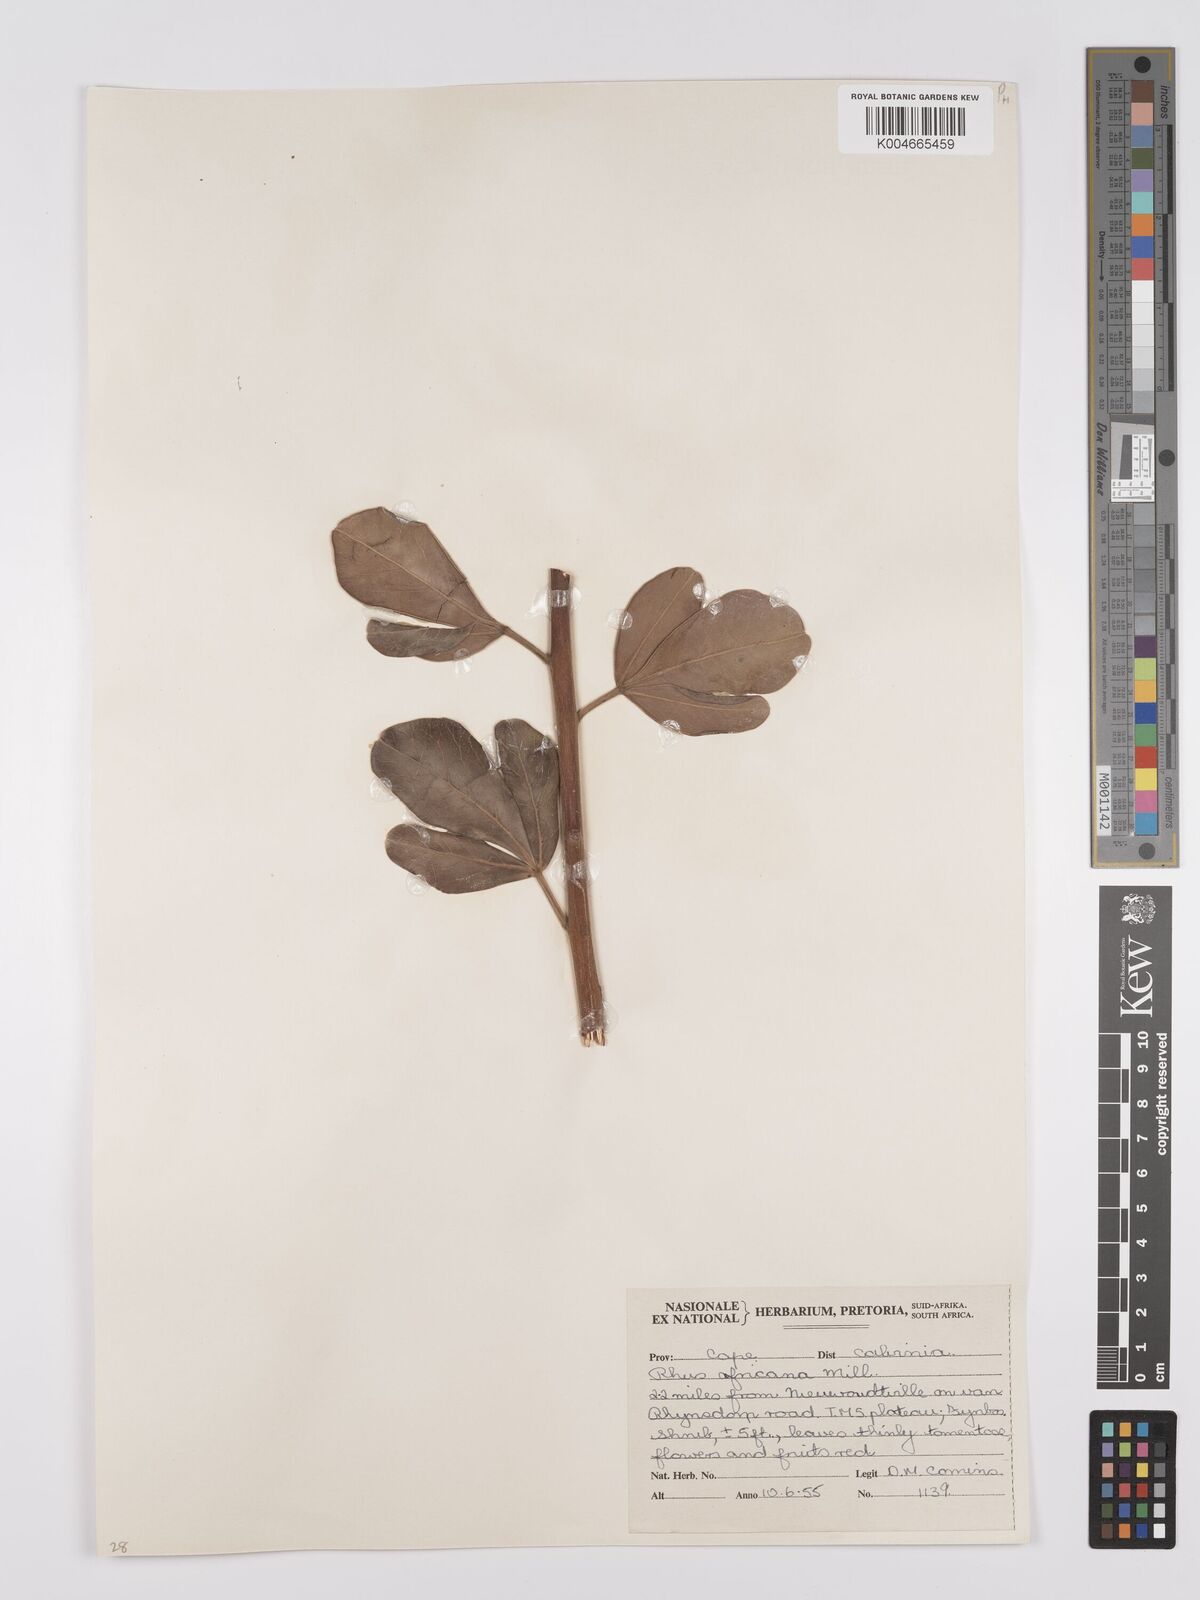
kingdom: Plantae
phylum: Tracheophyta
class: Magnoliopsida
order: Sapindales
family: Anacardiaceae
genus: Searsia
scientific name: Searsia lucida
